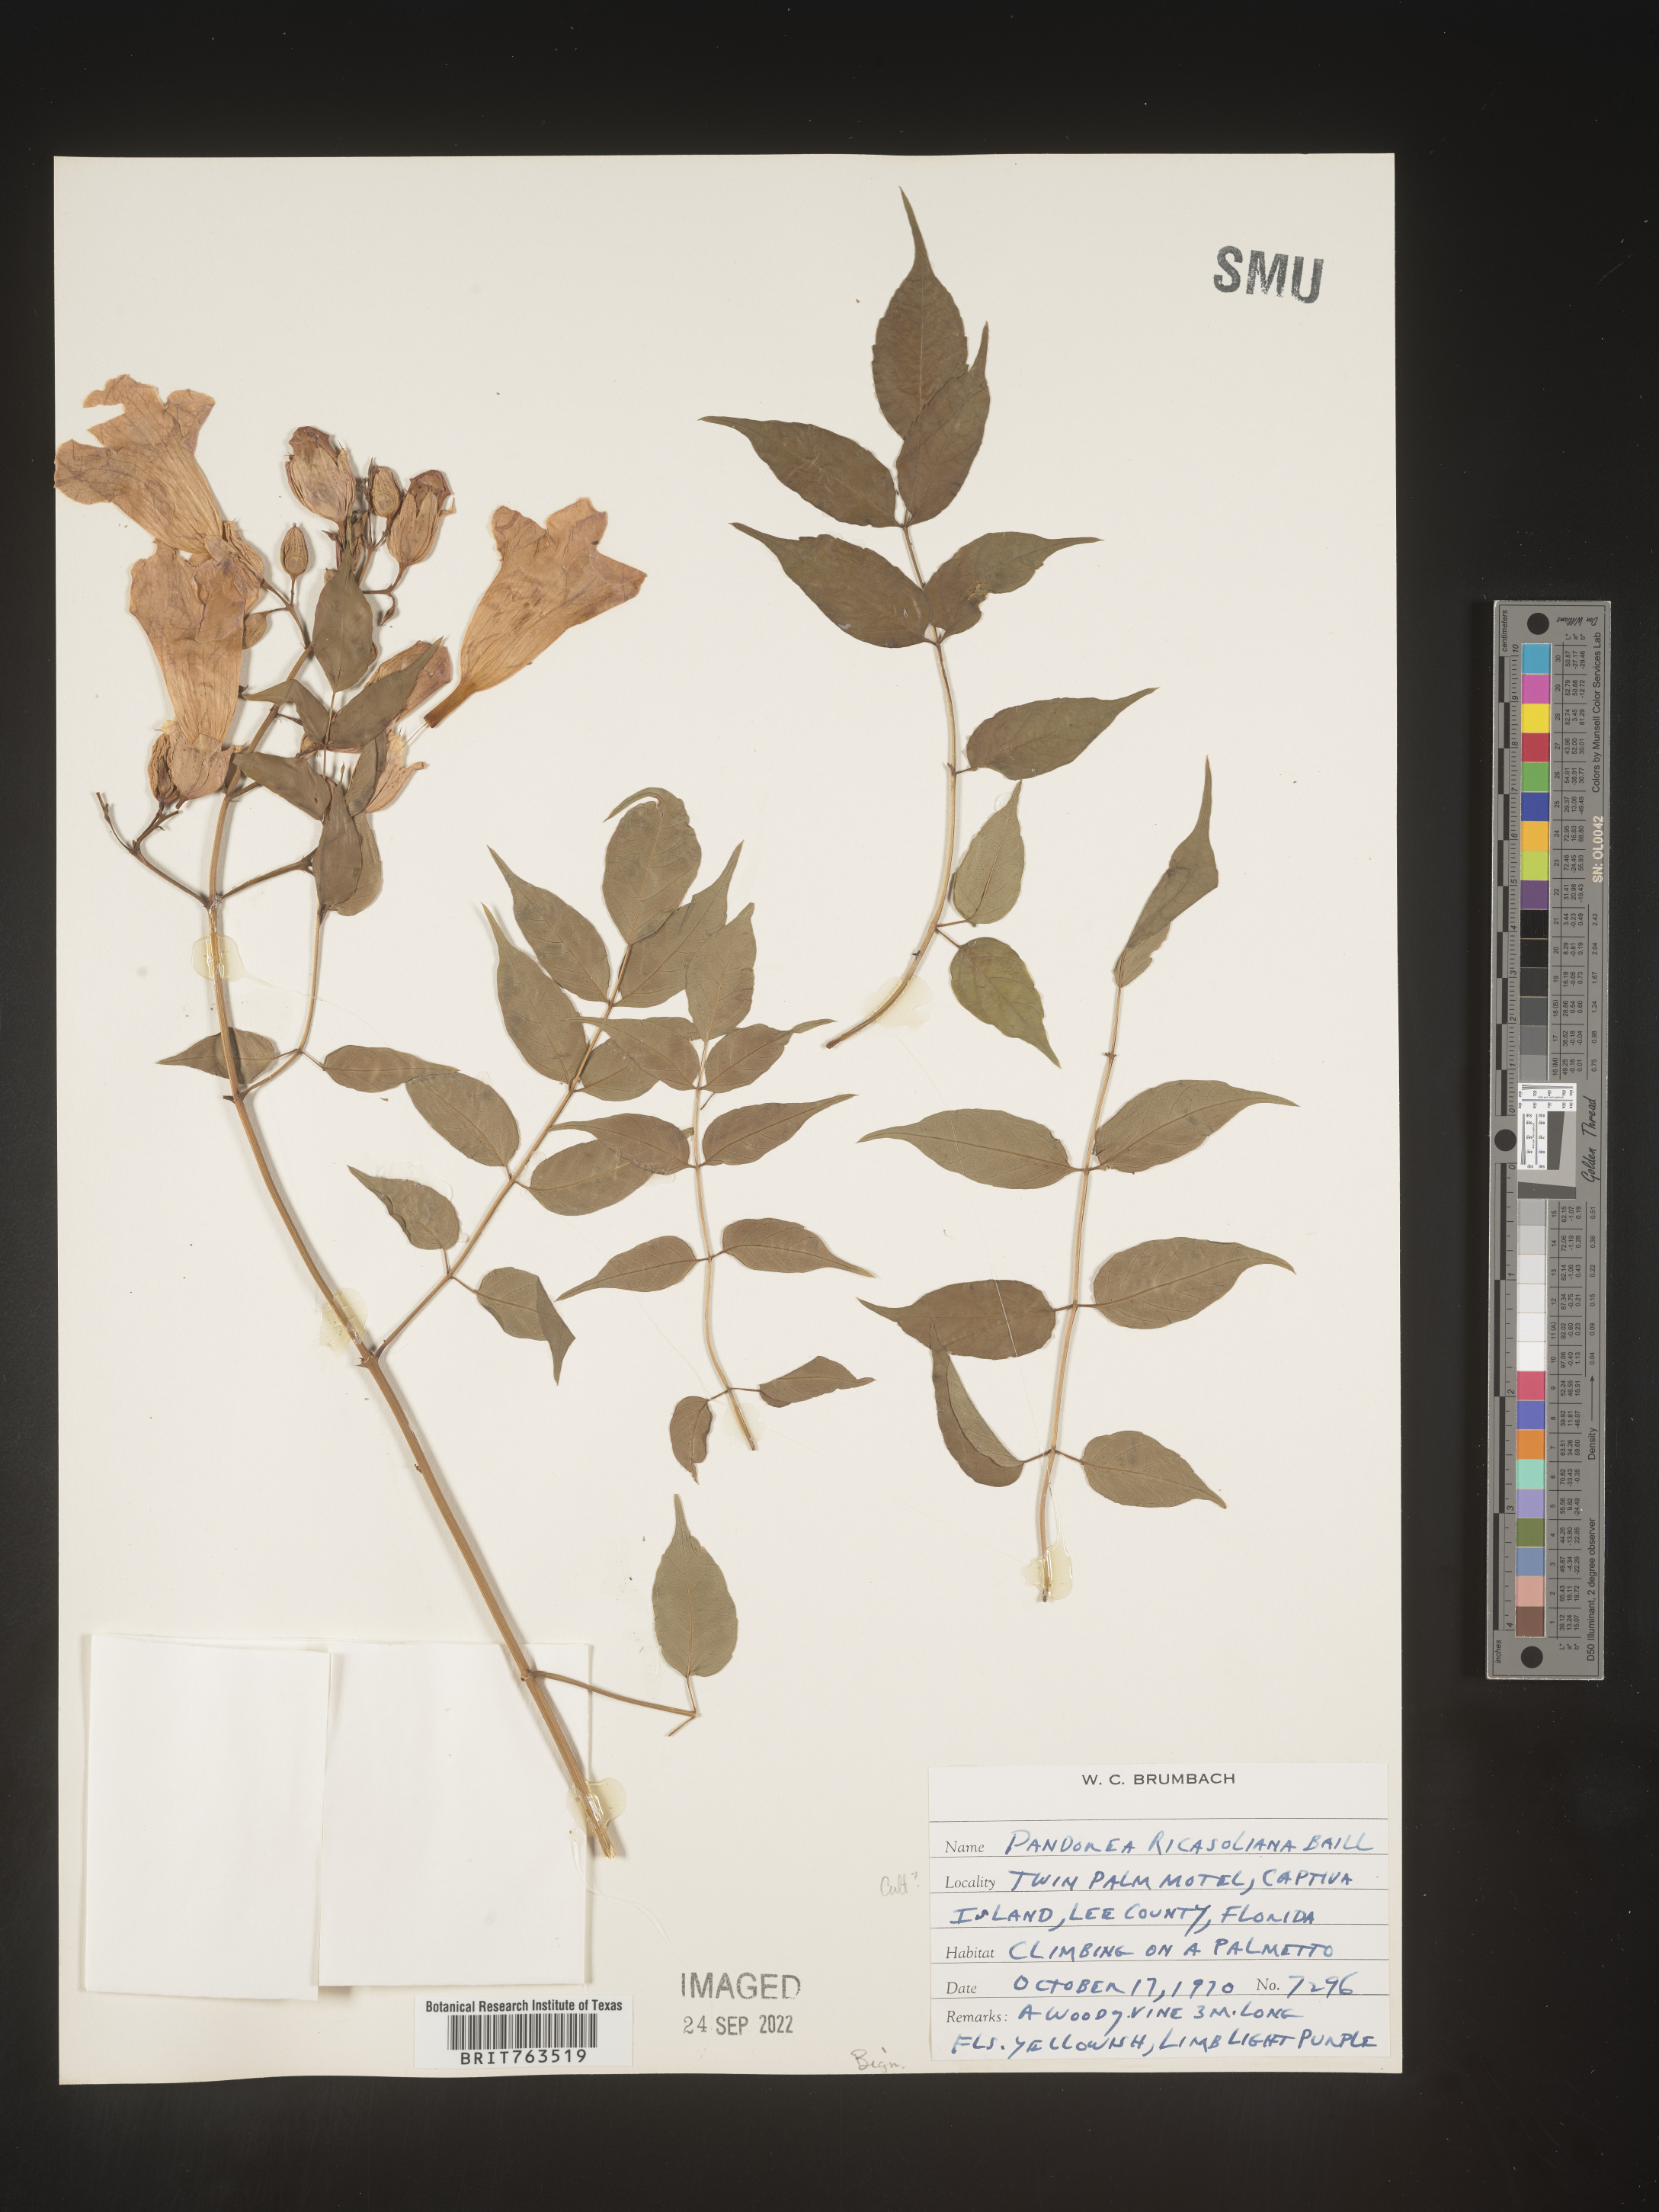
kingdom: Plantae
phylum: Tracheophyta
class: Magnoliopsida
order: Lamiales
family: Bignoniaceae
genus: Pandorea
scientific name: Pandorea
